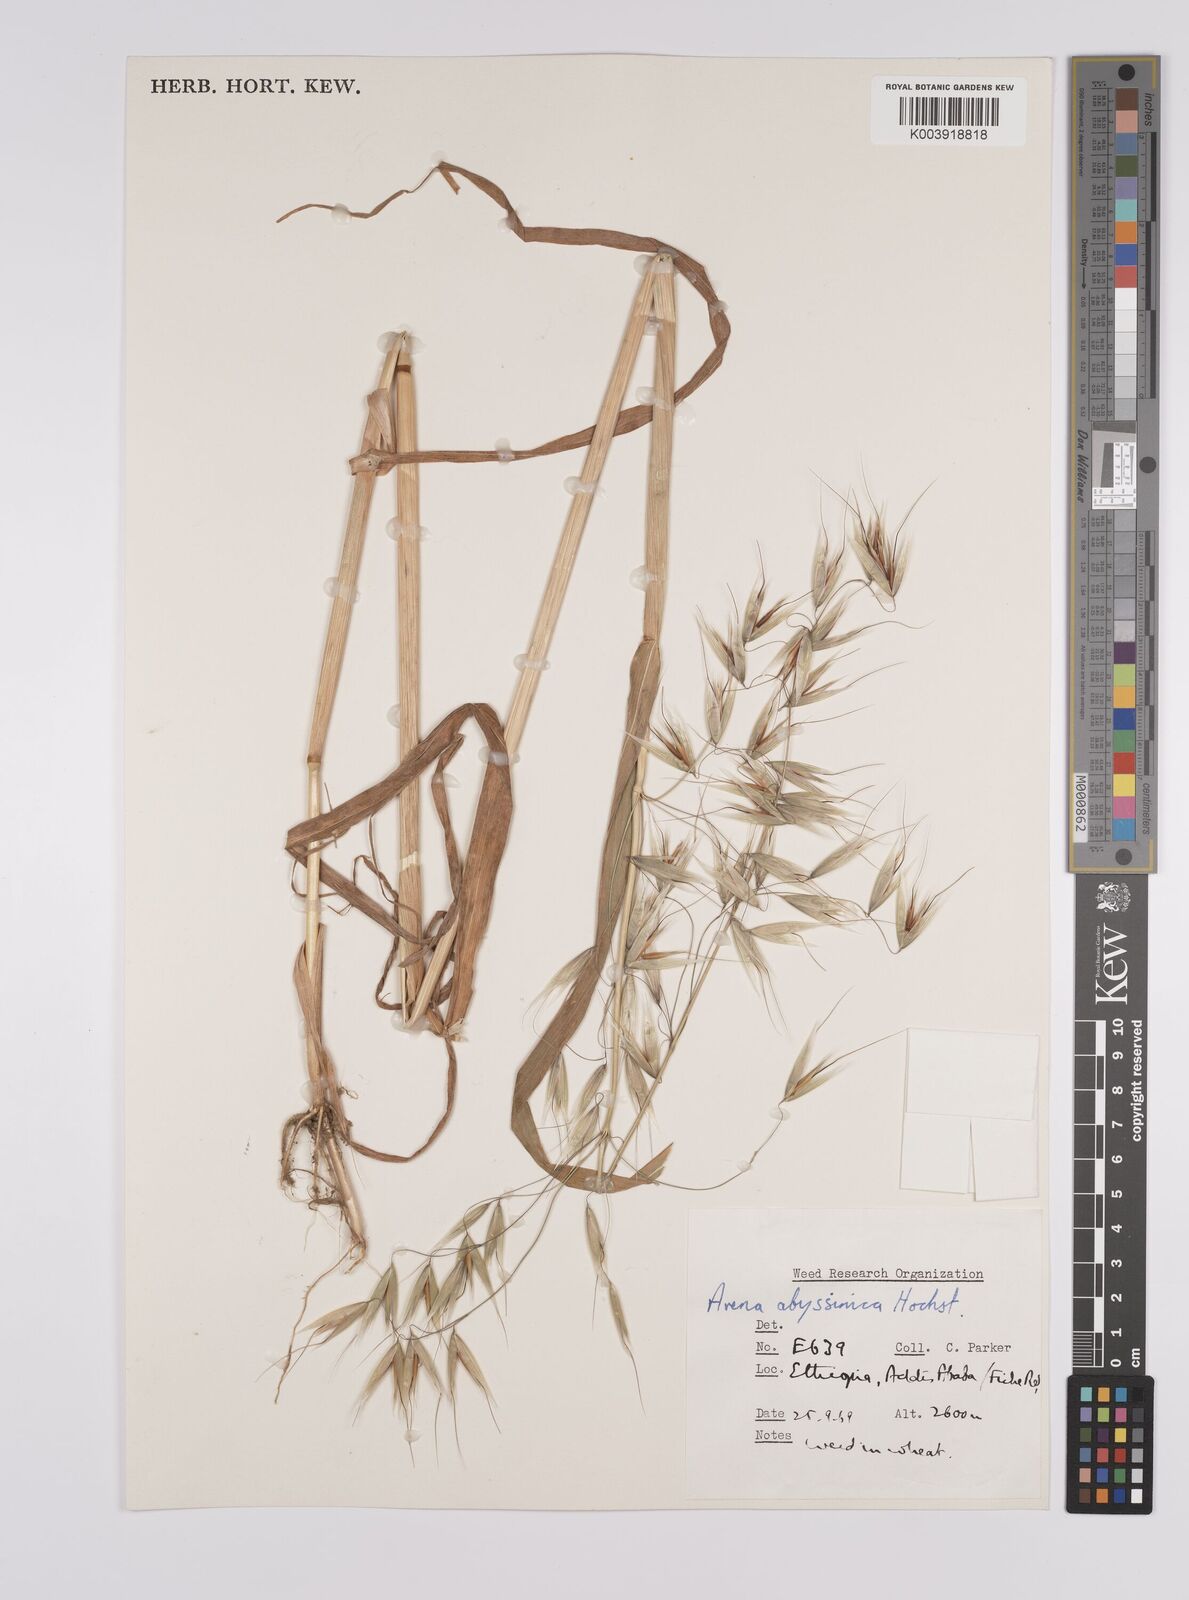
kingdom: Plantae
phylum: Tracheophyta
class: Liliopsida
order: Poales
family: Poaceae
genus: Avena
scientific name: Avena abyssinica
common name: Ethiopian oat
